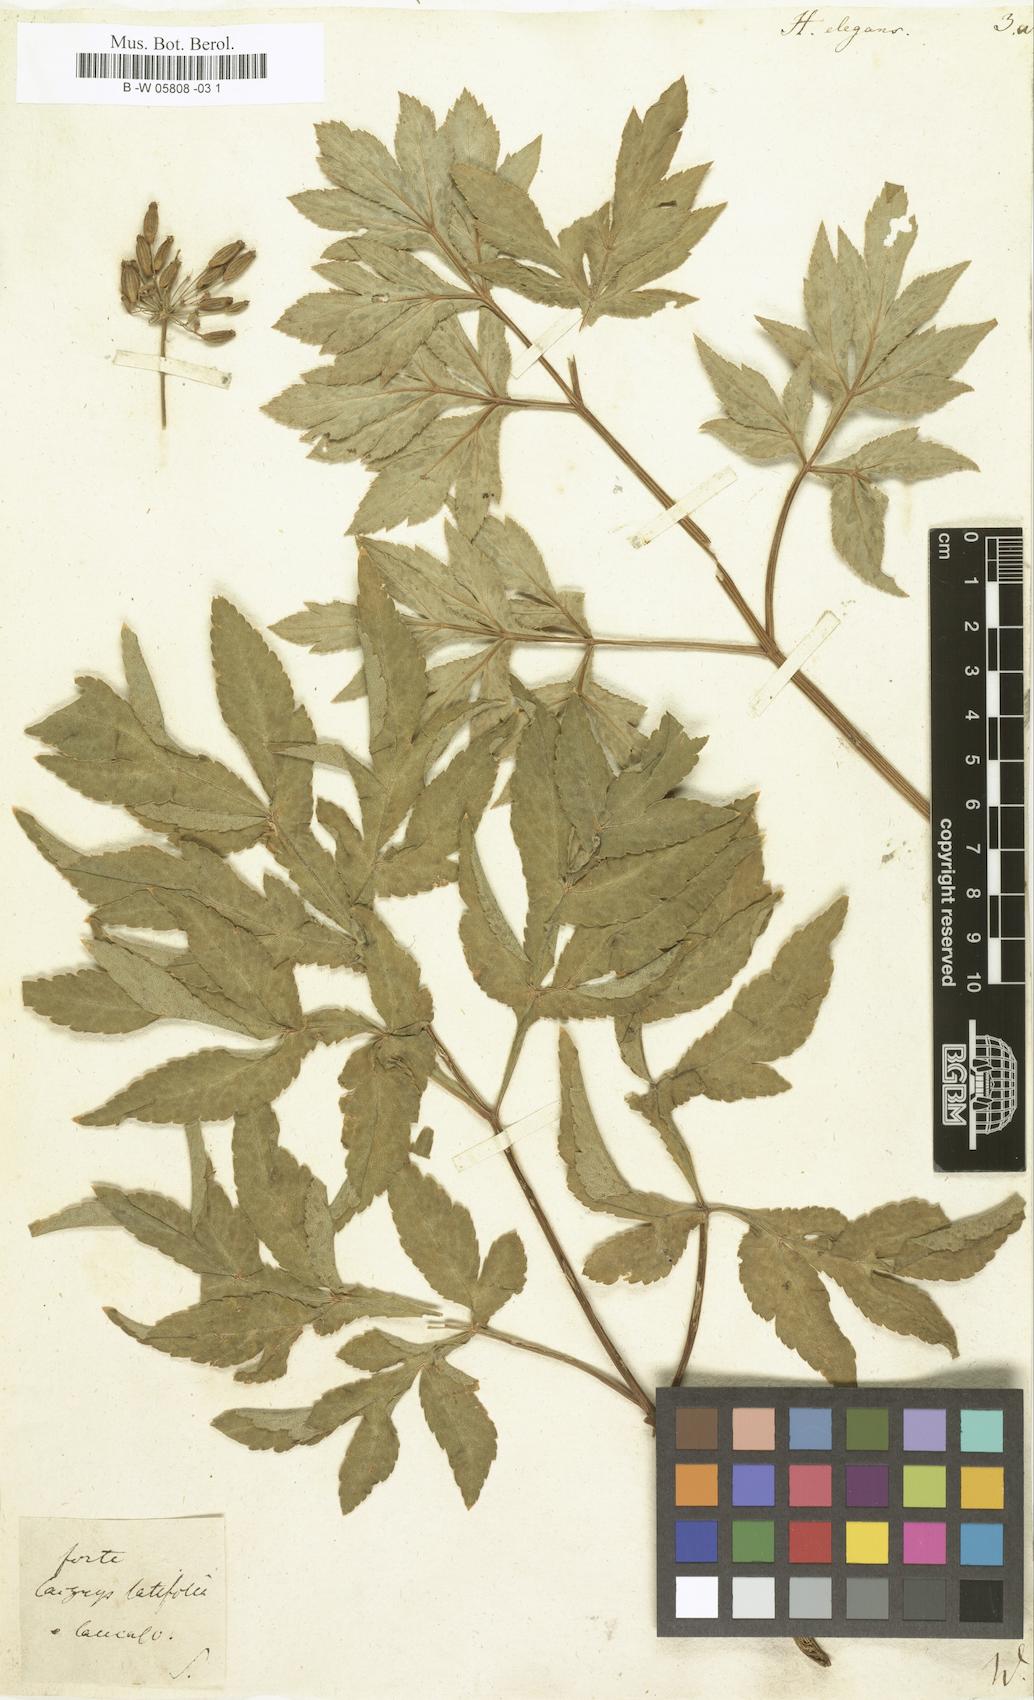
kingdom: Plantae
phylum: Tracheophyta
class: Magnoliopsida
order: Apiales
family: Apiaceae
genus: Heracleum
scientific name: Heracleum sphondylium
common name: Hogweed
